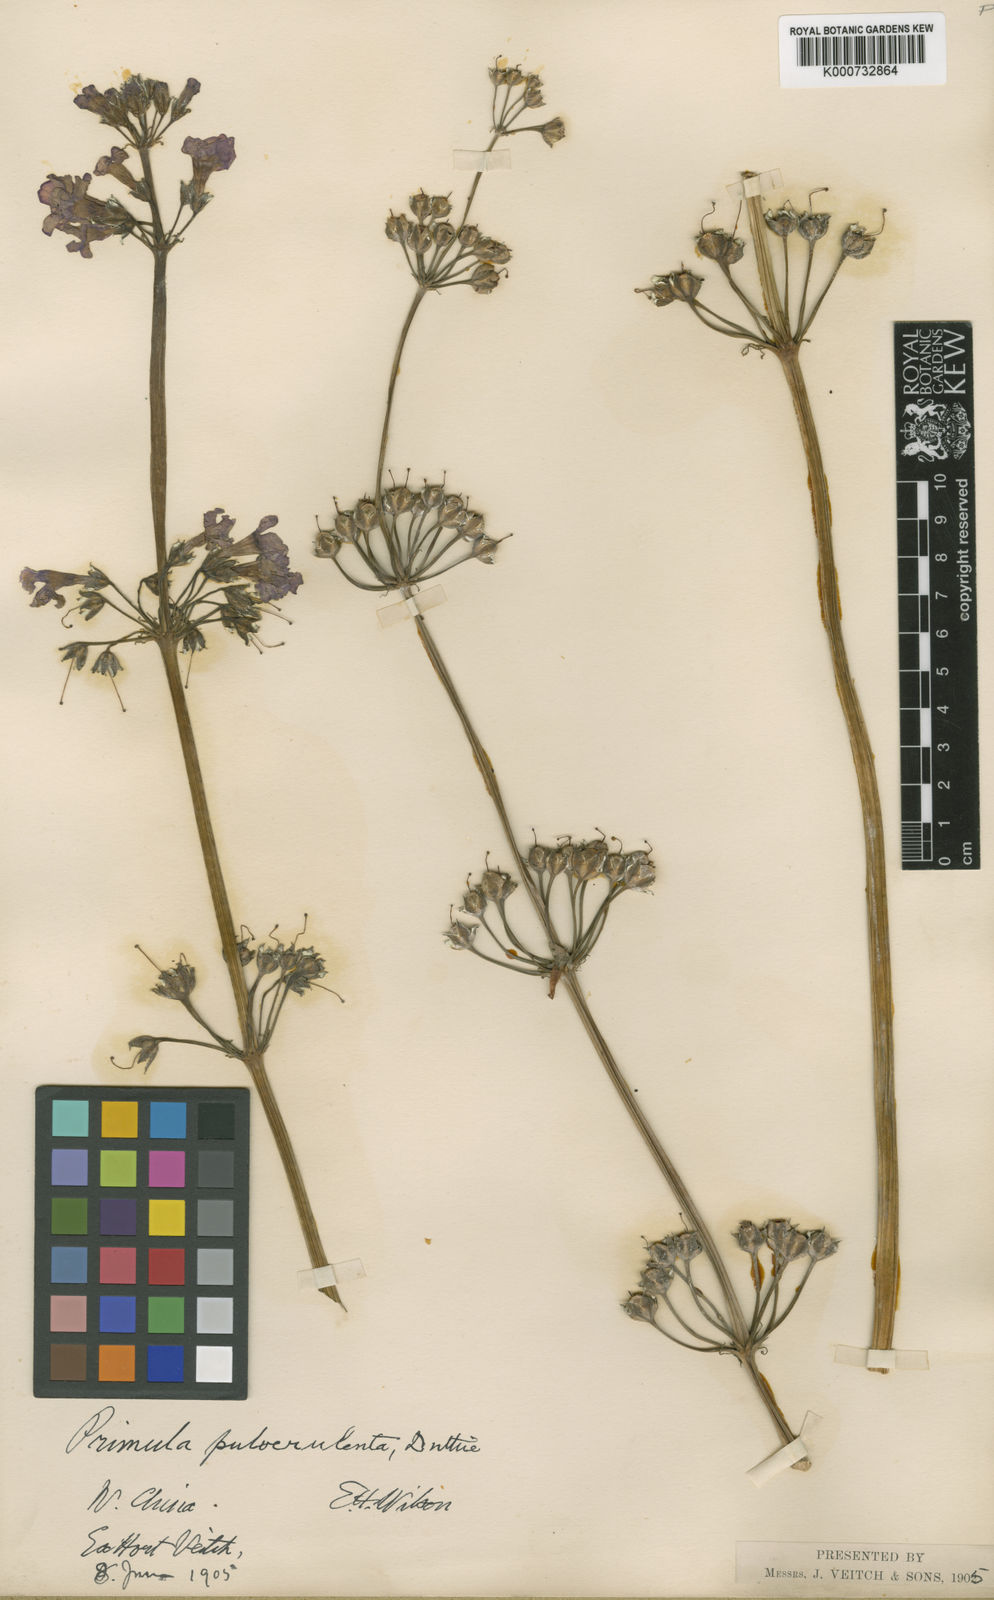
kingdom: Plantae
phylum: Tracheophyta
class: Magnoliopsida
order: Ericales
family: Primulaceae
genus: Primula
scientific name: Primula pulverulenta
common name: Mealy cowslip
